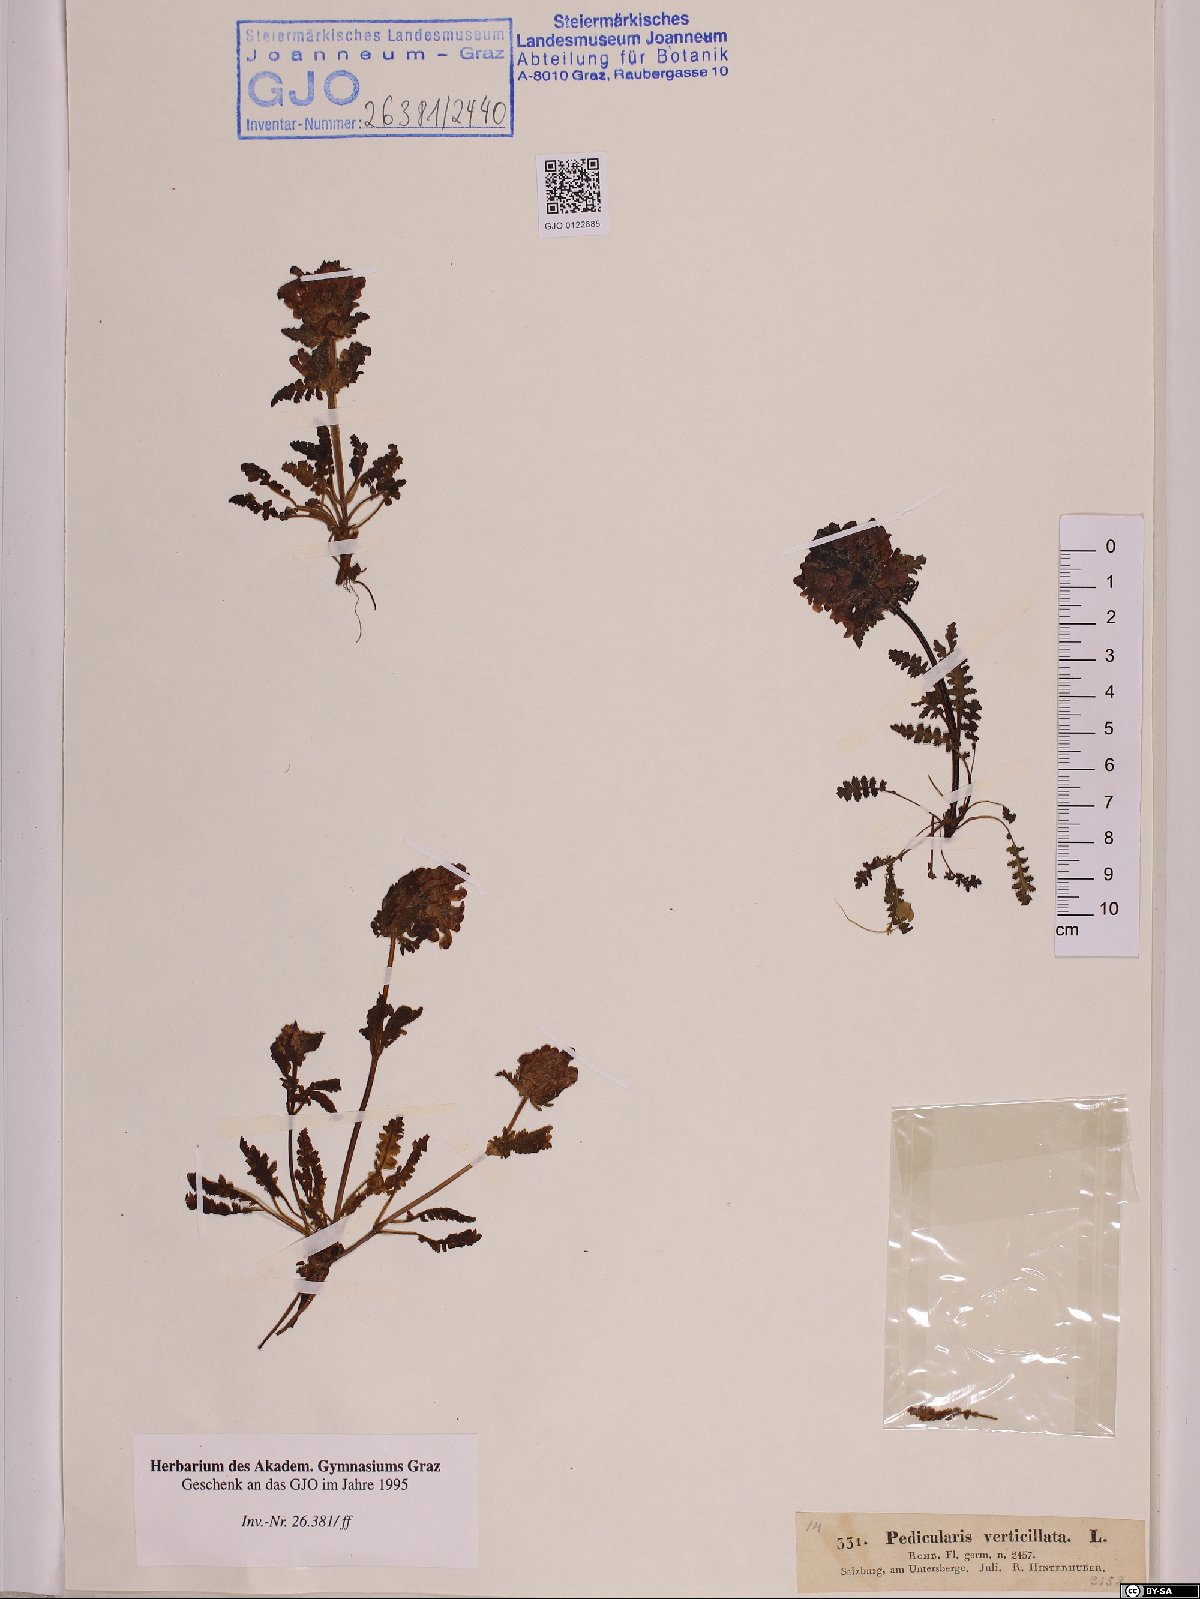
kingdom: Plantae
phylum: Tracheophyta
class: Magnoliopsida
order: Lamiales
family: Orobanchaceae
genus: Pedicularis
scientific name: Pedicularis verticillata
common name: Whorled lousewort
